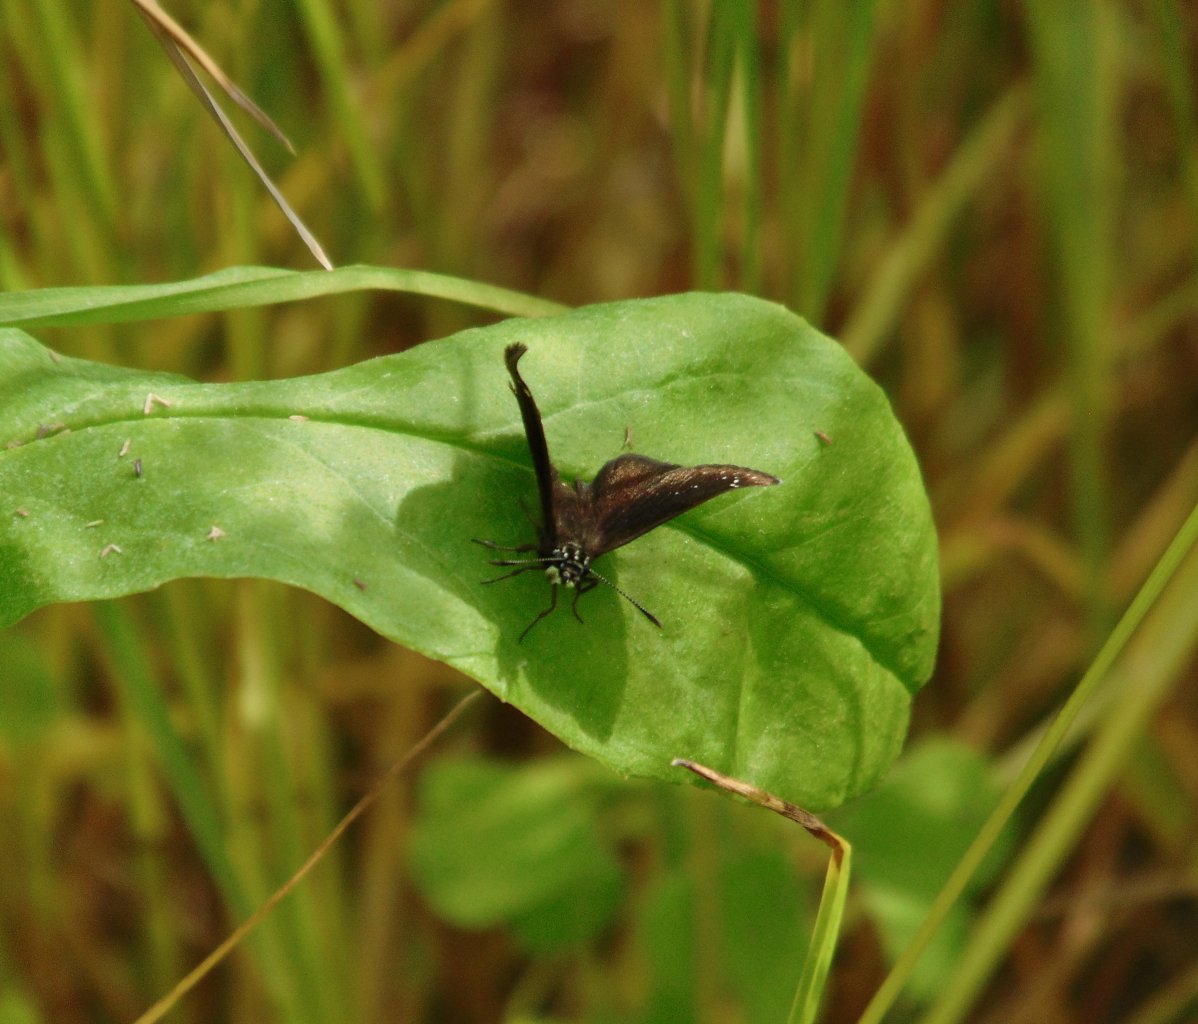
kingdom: Animalia
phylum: Arthropoda
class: Insecta
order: Lepidoptera
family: Hesperiidae
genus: Pholisora
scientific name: Pholisora catullus
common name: Common Sootywing
